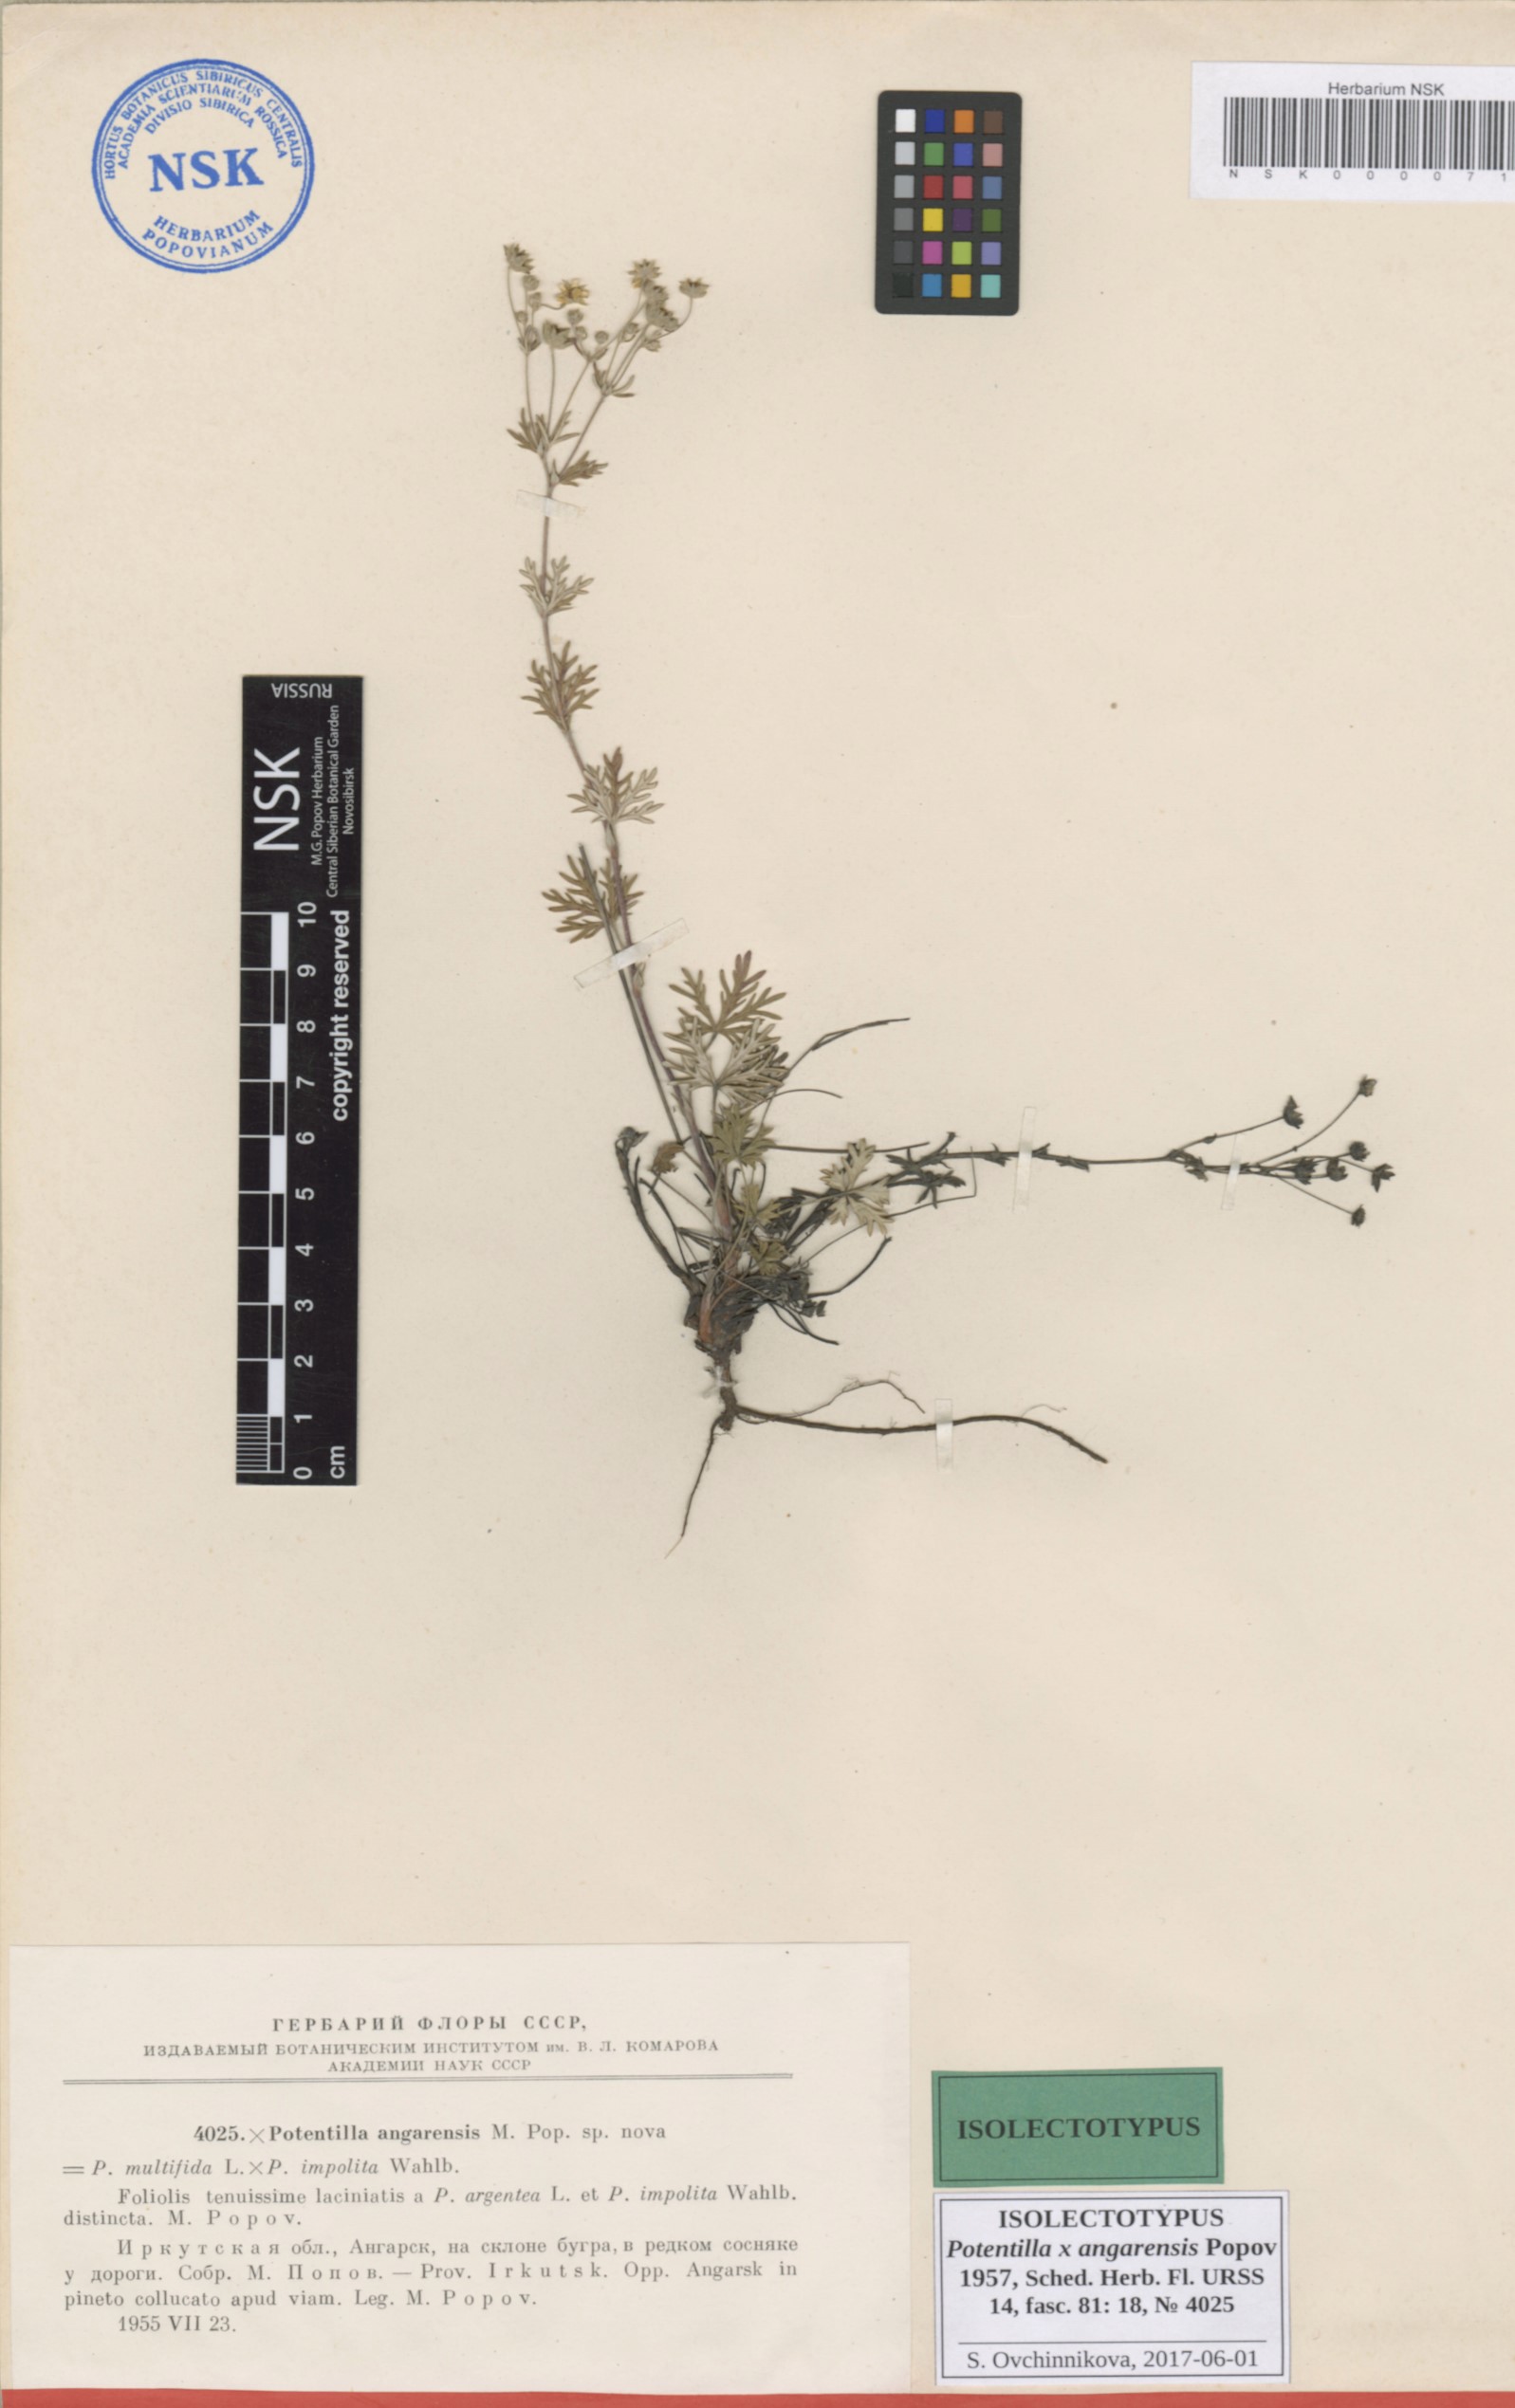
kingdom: Plantae
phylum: Tracheophyta
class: Magnoliopsida
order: Rosales
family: Rosaceae
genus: Potentilla
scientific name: Potentilla angarensis
